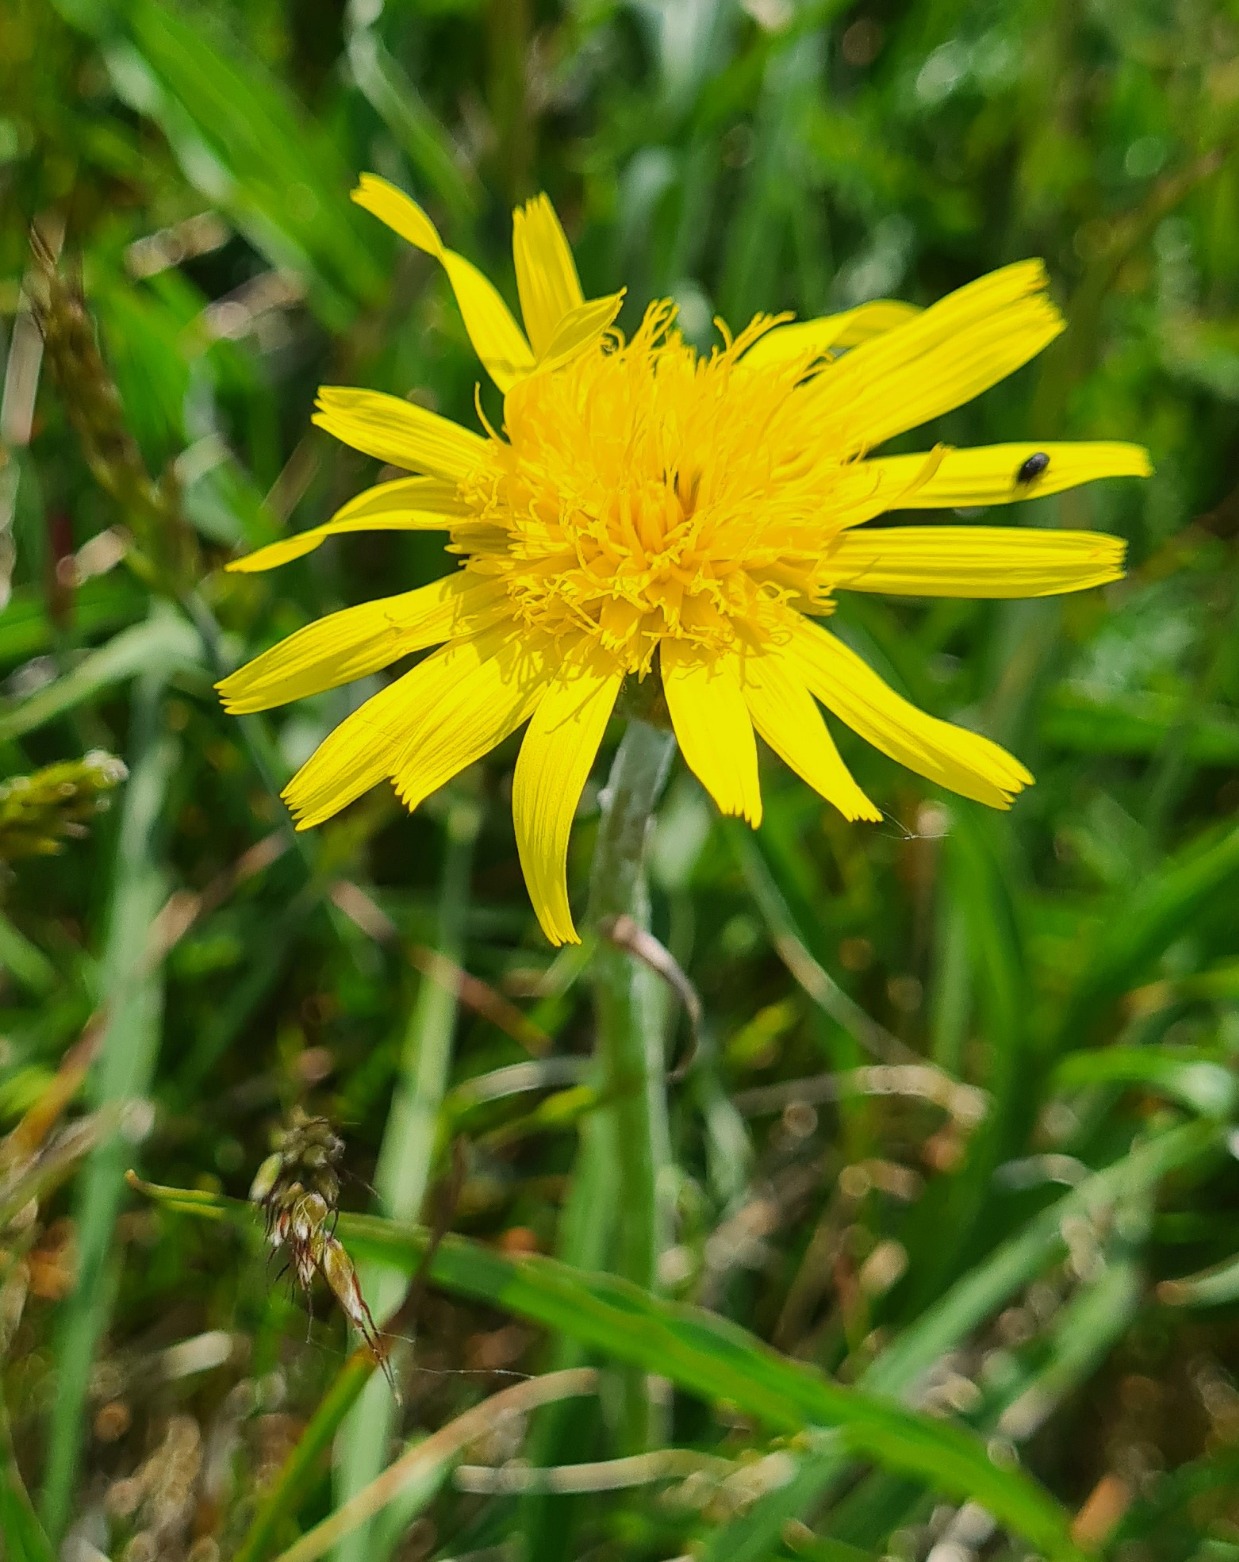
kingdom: Plantae
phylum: Tracheophyta
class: Magnoliopsida
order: Asterales
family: Asteraceae
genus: Scorzonera
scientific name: Scorzonera humilis
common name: Lav skorsoner
